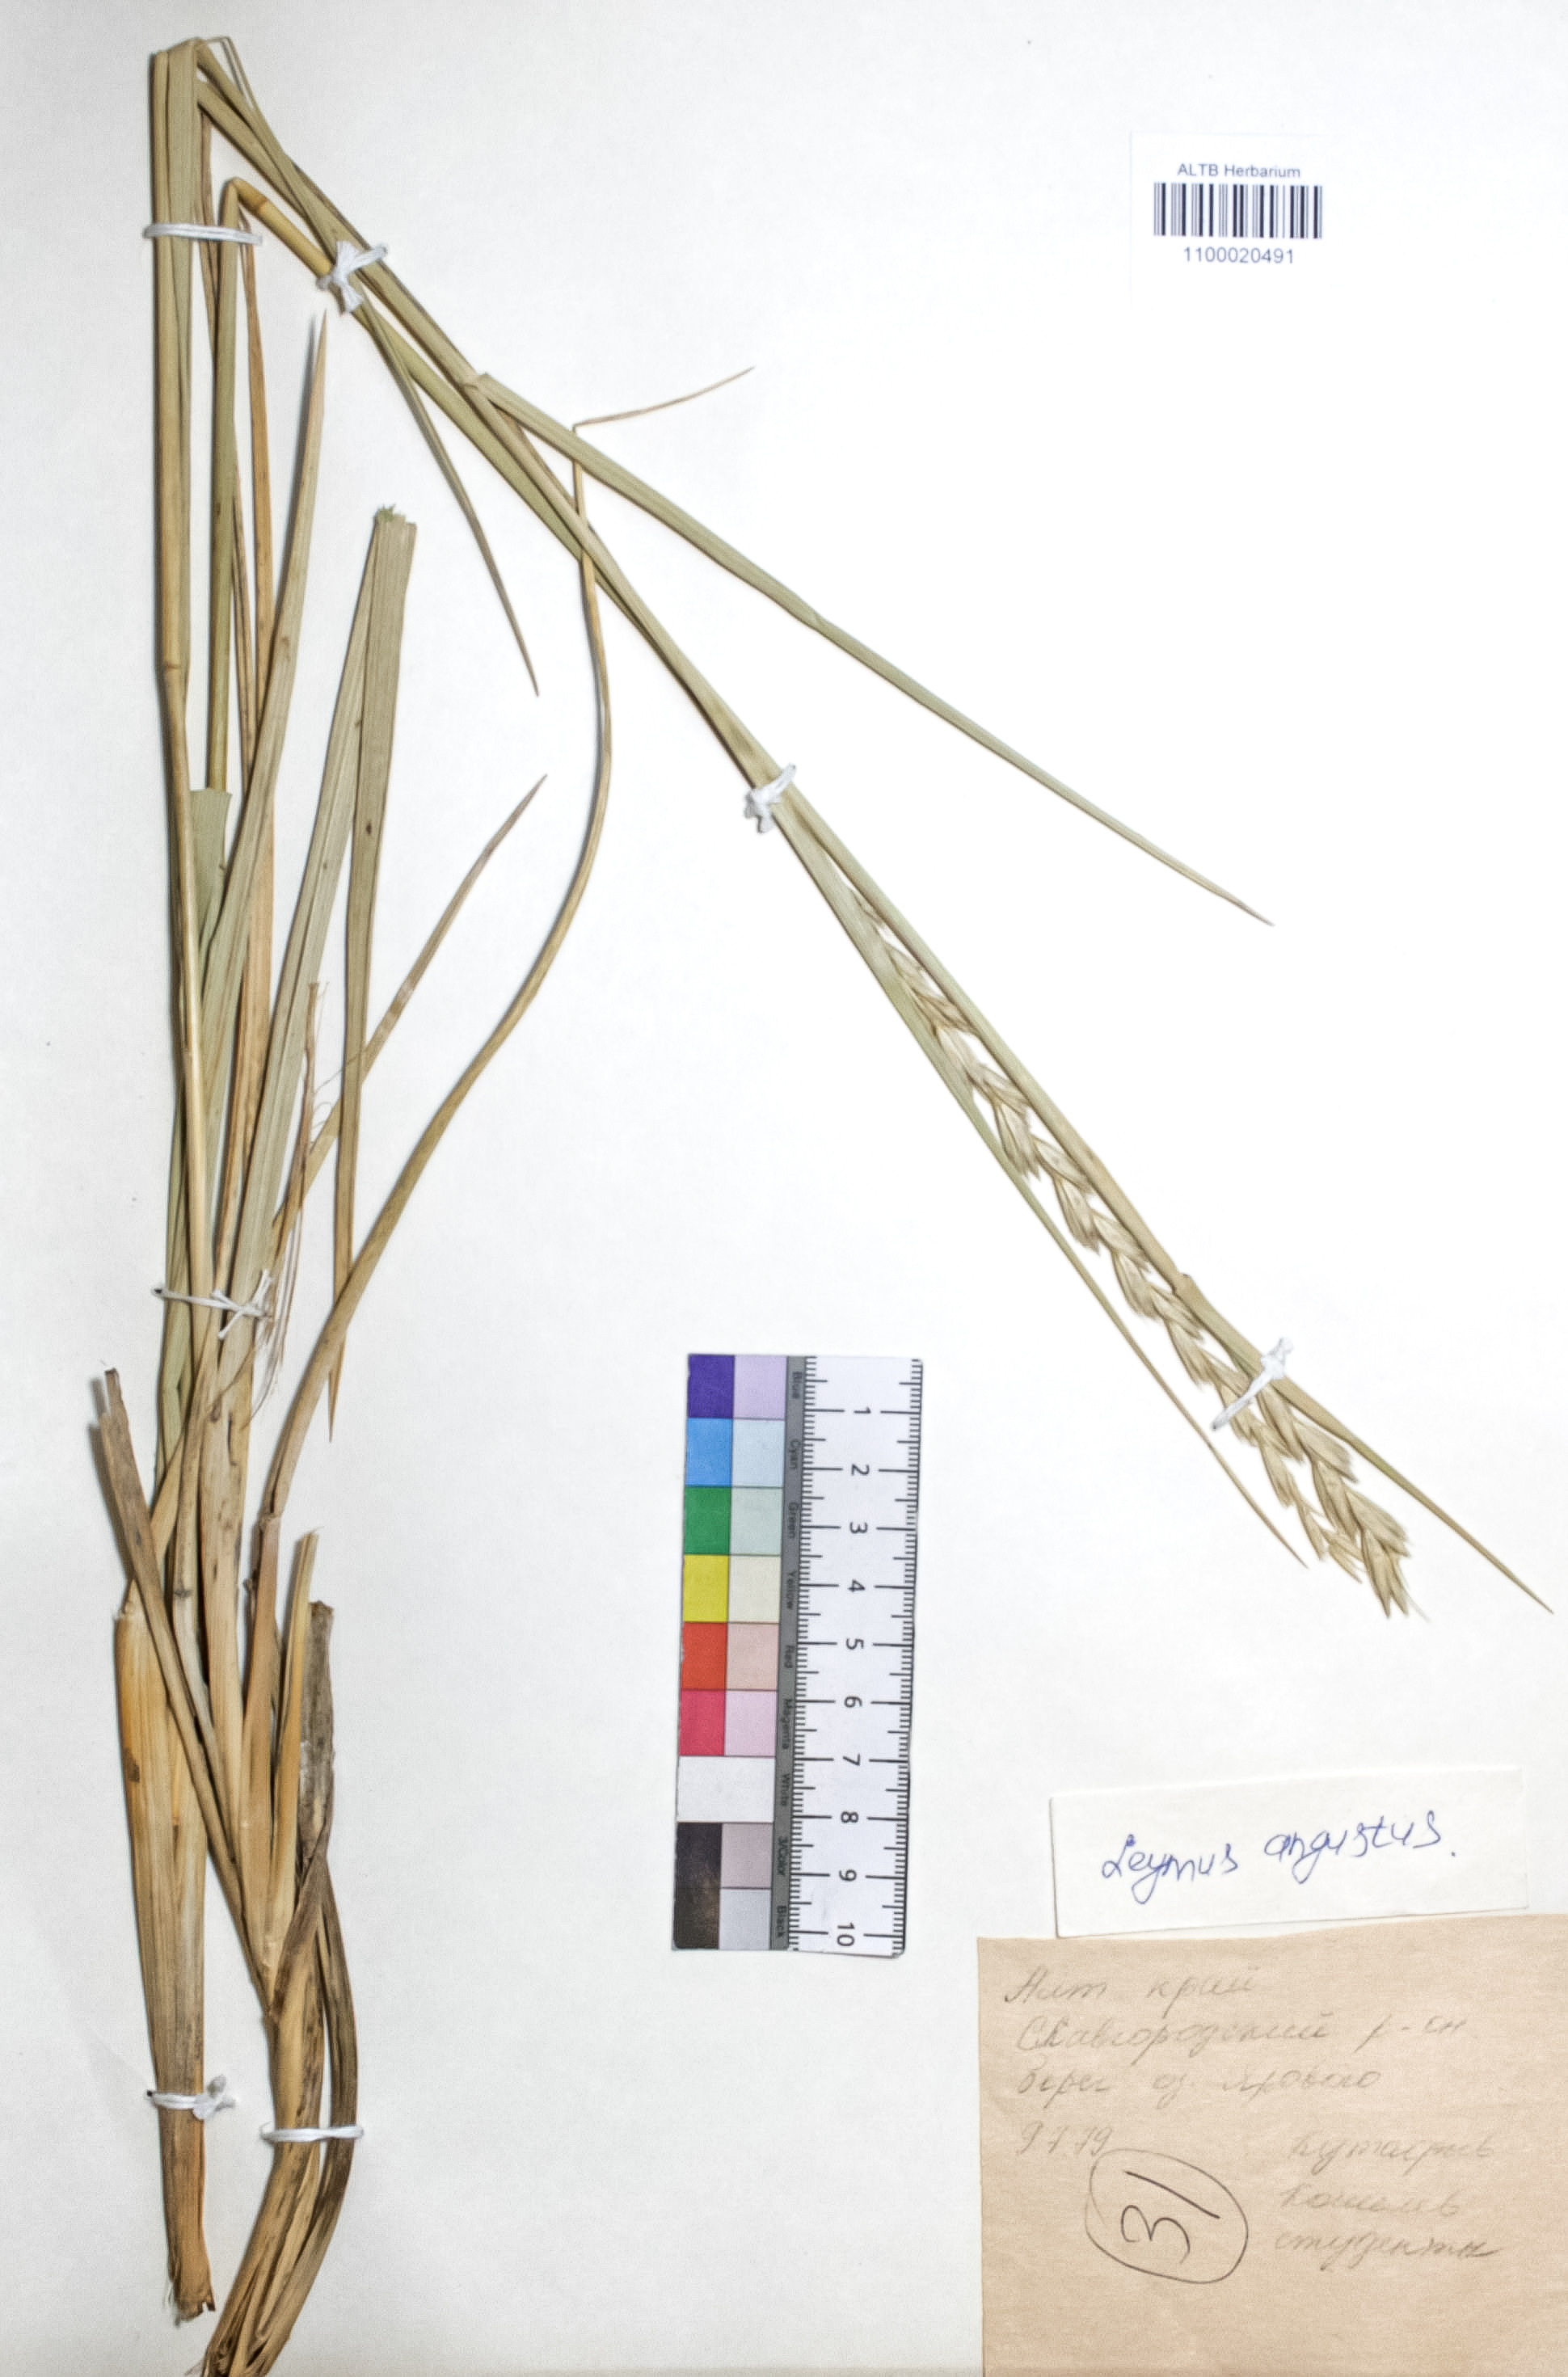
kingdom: Plantae
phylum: Tracheophyta
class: Liliopsida
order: Poales
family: Poaceae
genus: Leymus
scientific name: Leymus angustus
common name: Altai wildrye
